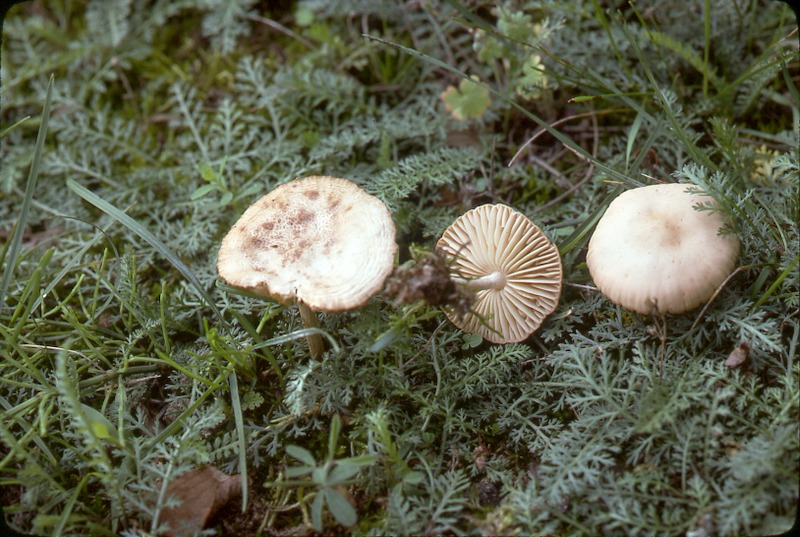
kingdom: Fungi
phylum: Basidiomycota
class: Agaricomycetes
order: Agaricales
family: Marasmiaceae
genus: Marasmius
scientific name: Marasmius oreades
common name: Fairy ring champignon
